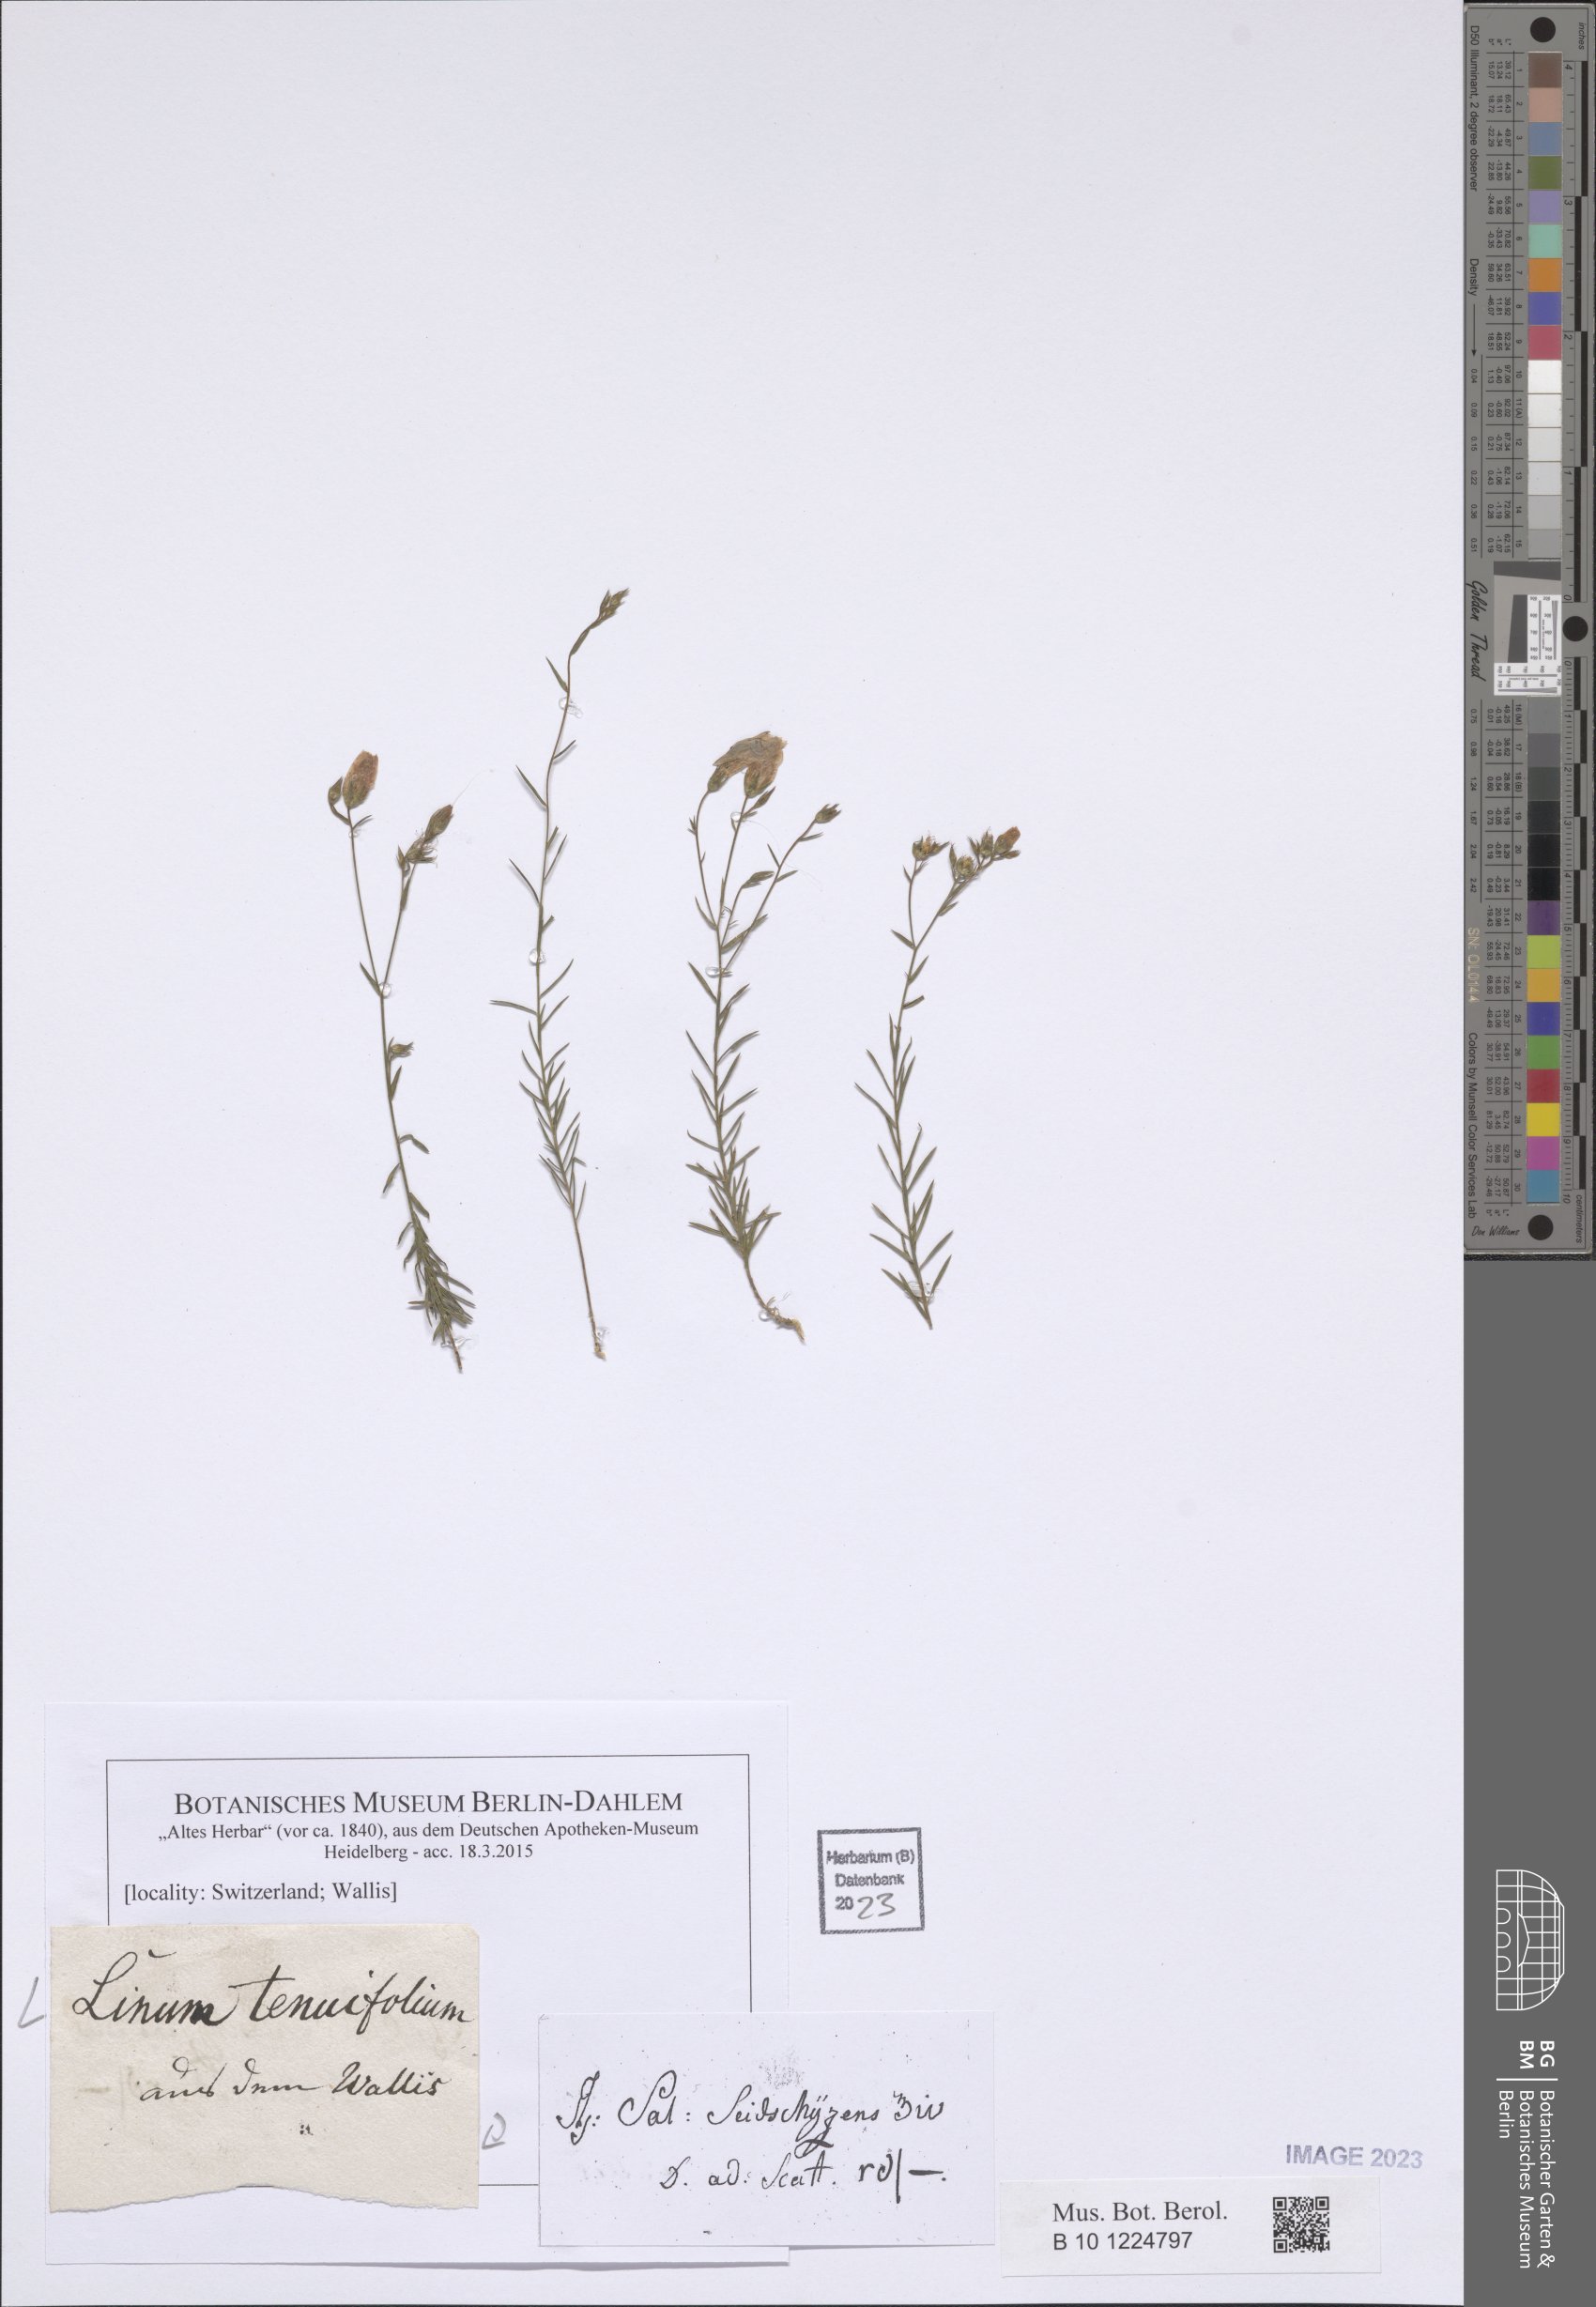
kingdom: Plantae
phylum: Tracheophyta
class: Magnoliopsida
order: Malpighiales
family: Linaceae
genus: Linum
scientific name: Linum tenuifolium
